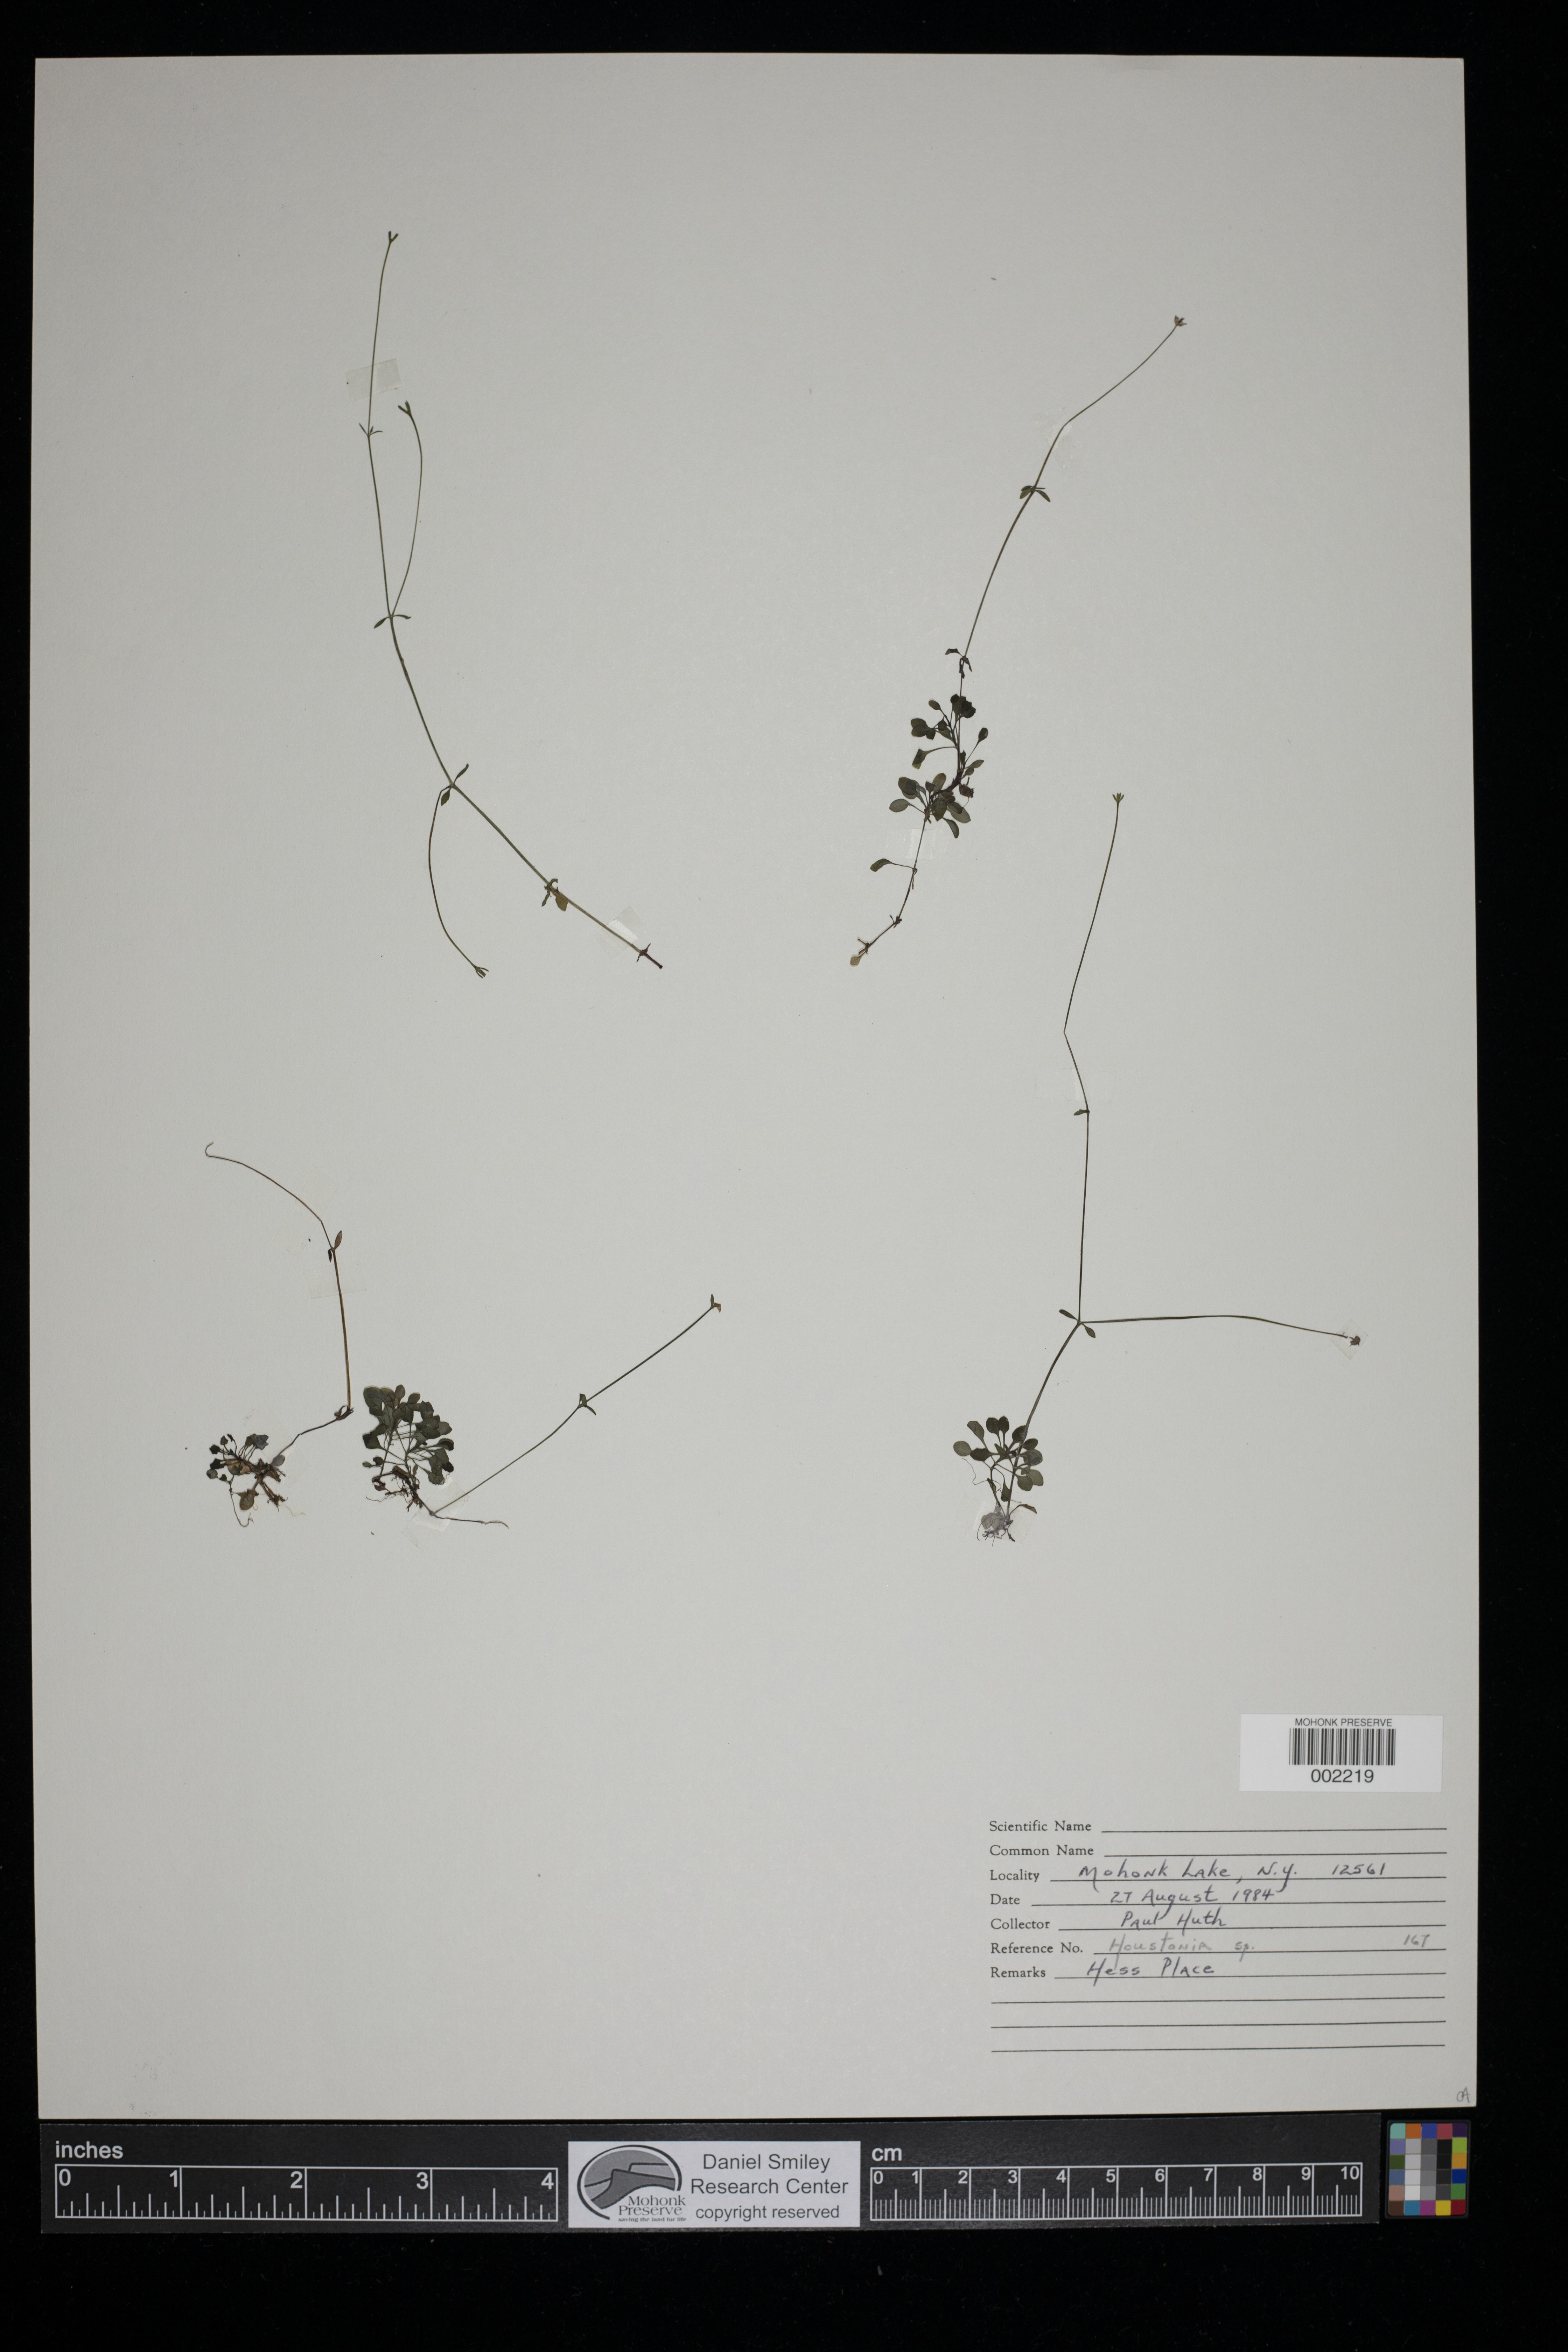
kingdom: Plantae
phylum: Tracheophyta
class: Magnoliopsida
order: Gentianales
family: Rubiaceae
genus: Houstonia
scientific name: Houstonia
